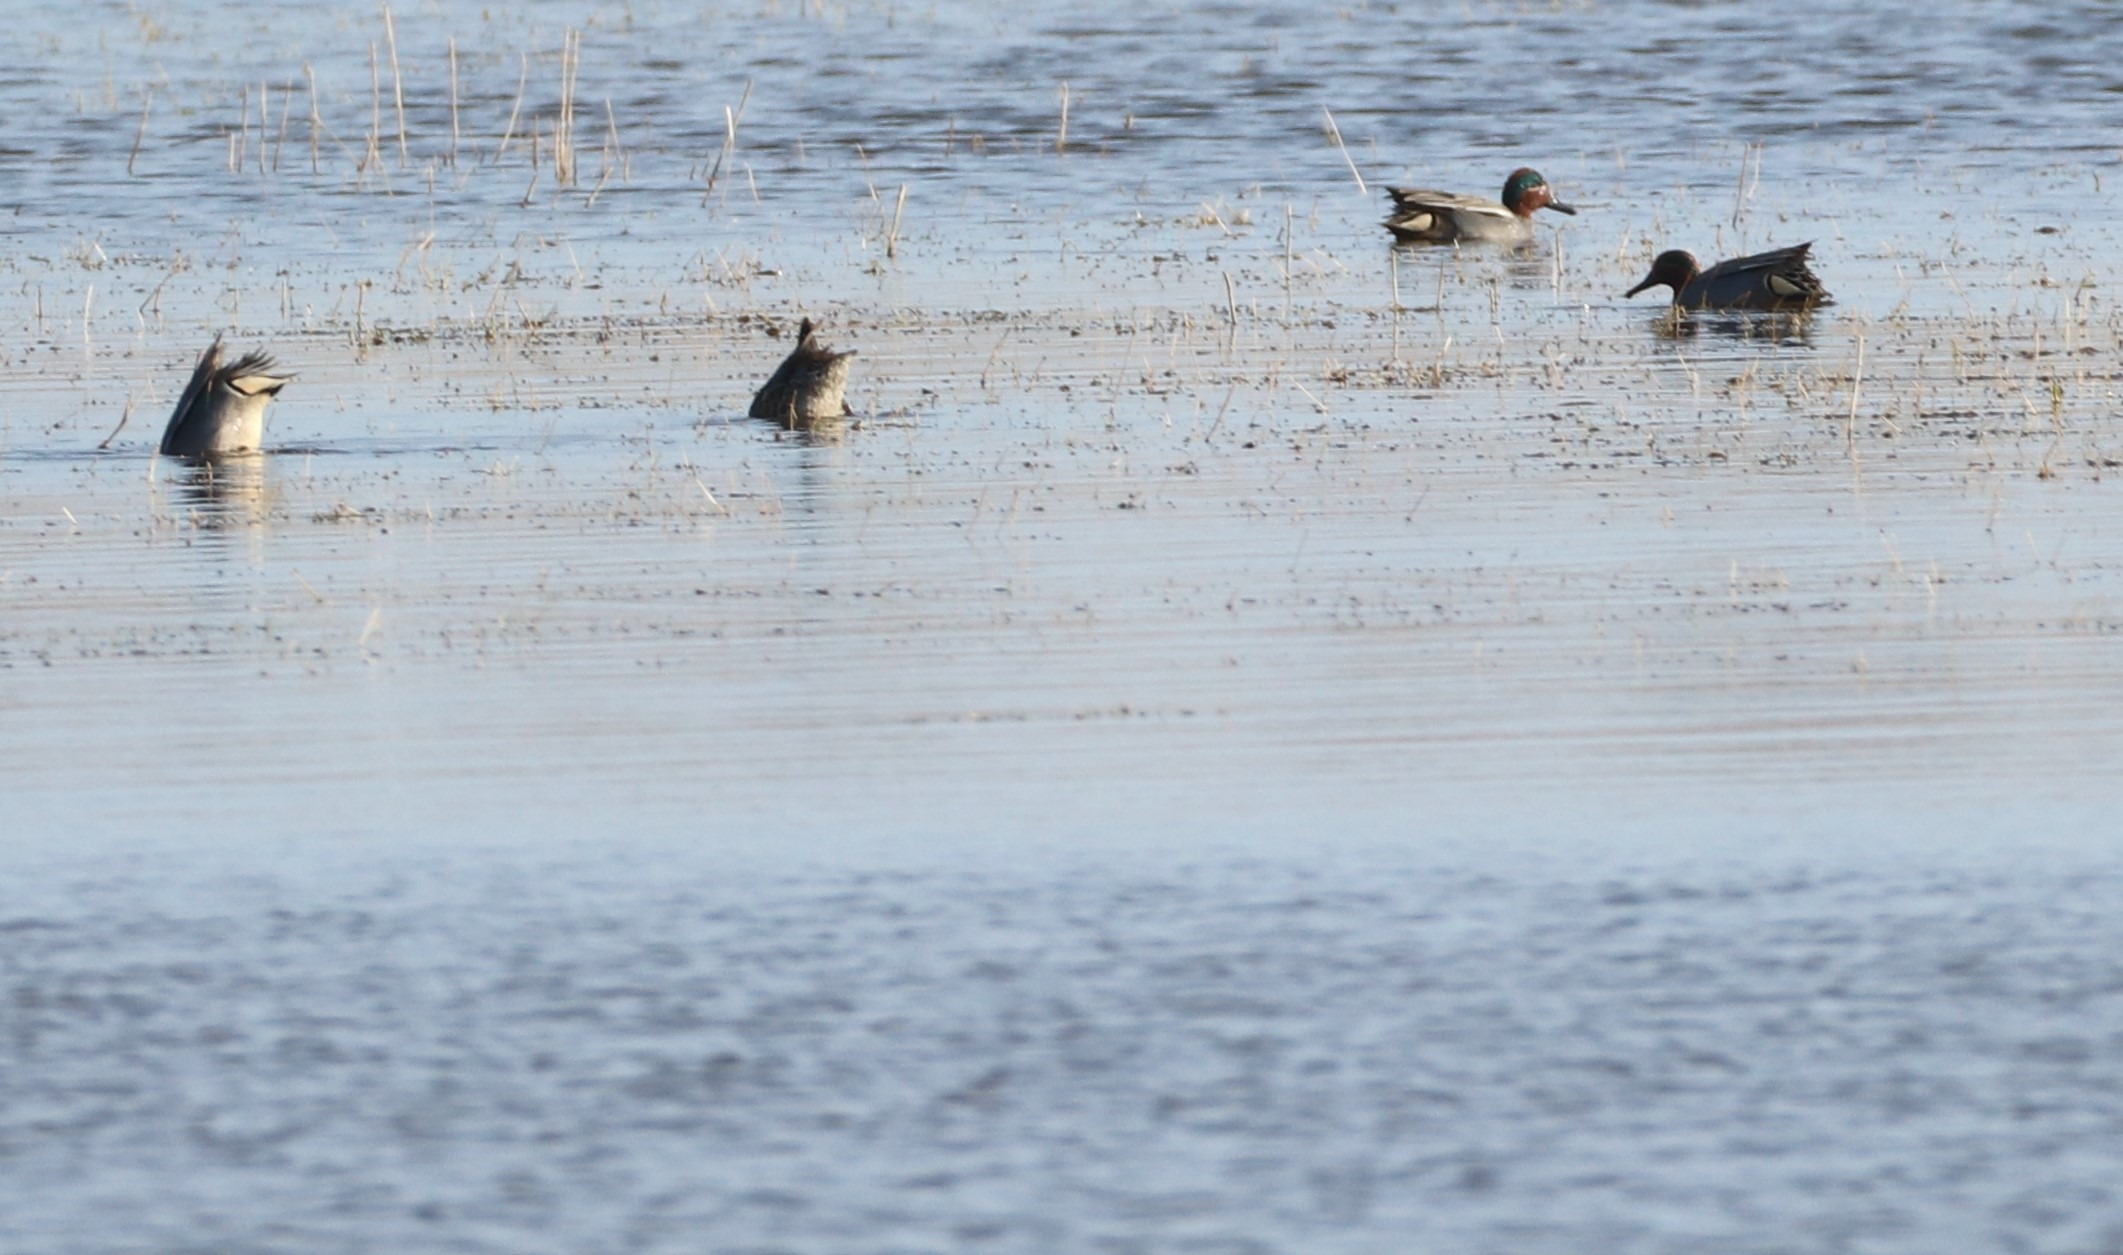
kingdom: Animalia
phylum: Chordata
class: Aves
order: Anseriformes
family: Anatidae
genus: Anas
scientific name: Anas crecca
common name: Krikand
